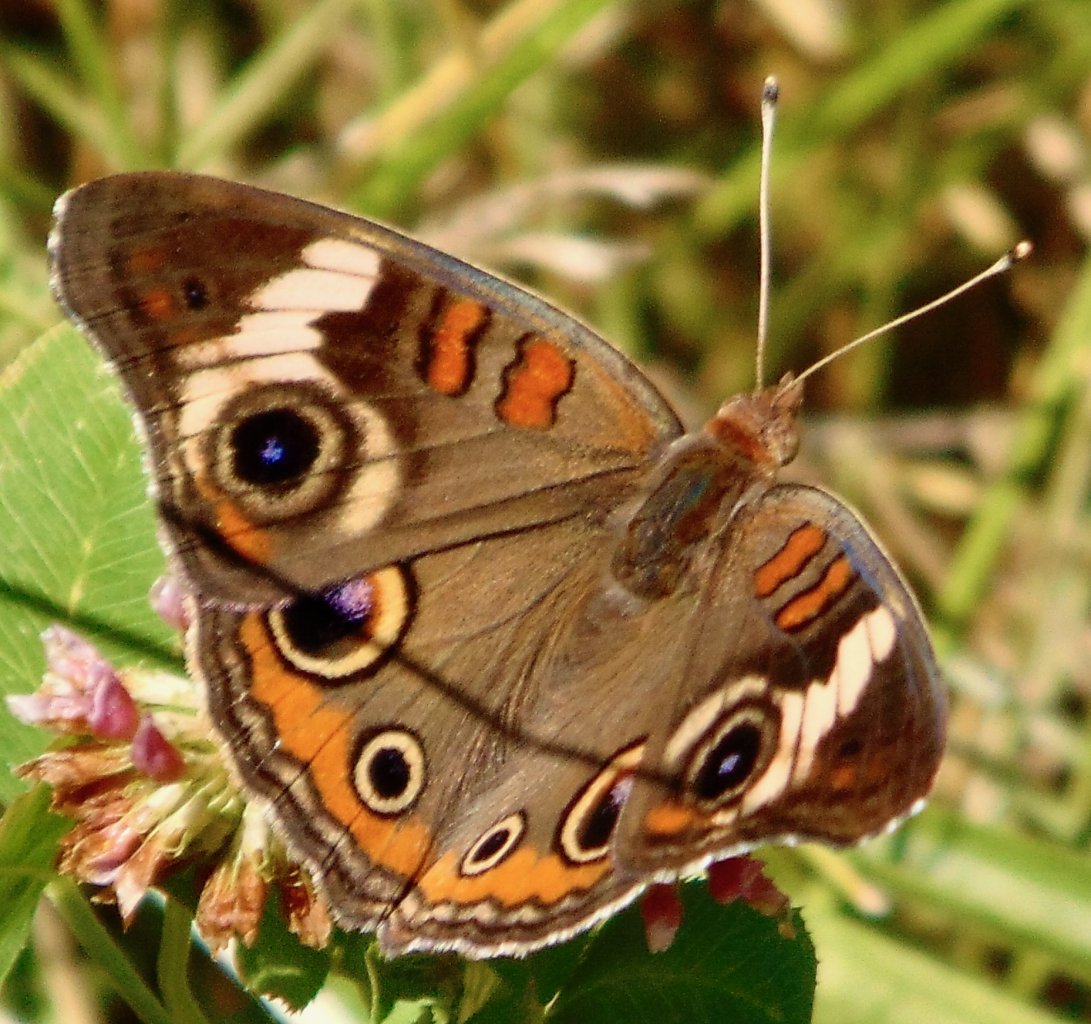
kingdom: Animalia
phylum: Arthropoda
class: Insecta
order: Lepidoptera
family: Nymphalidae
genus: Junonia
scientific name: Junonia coenia
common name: Common Buckeye
